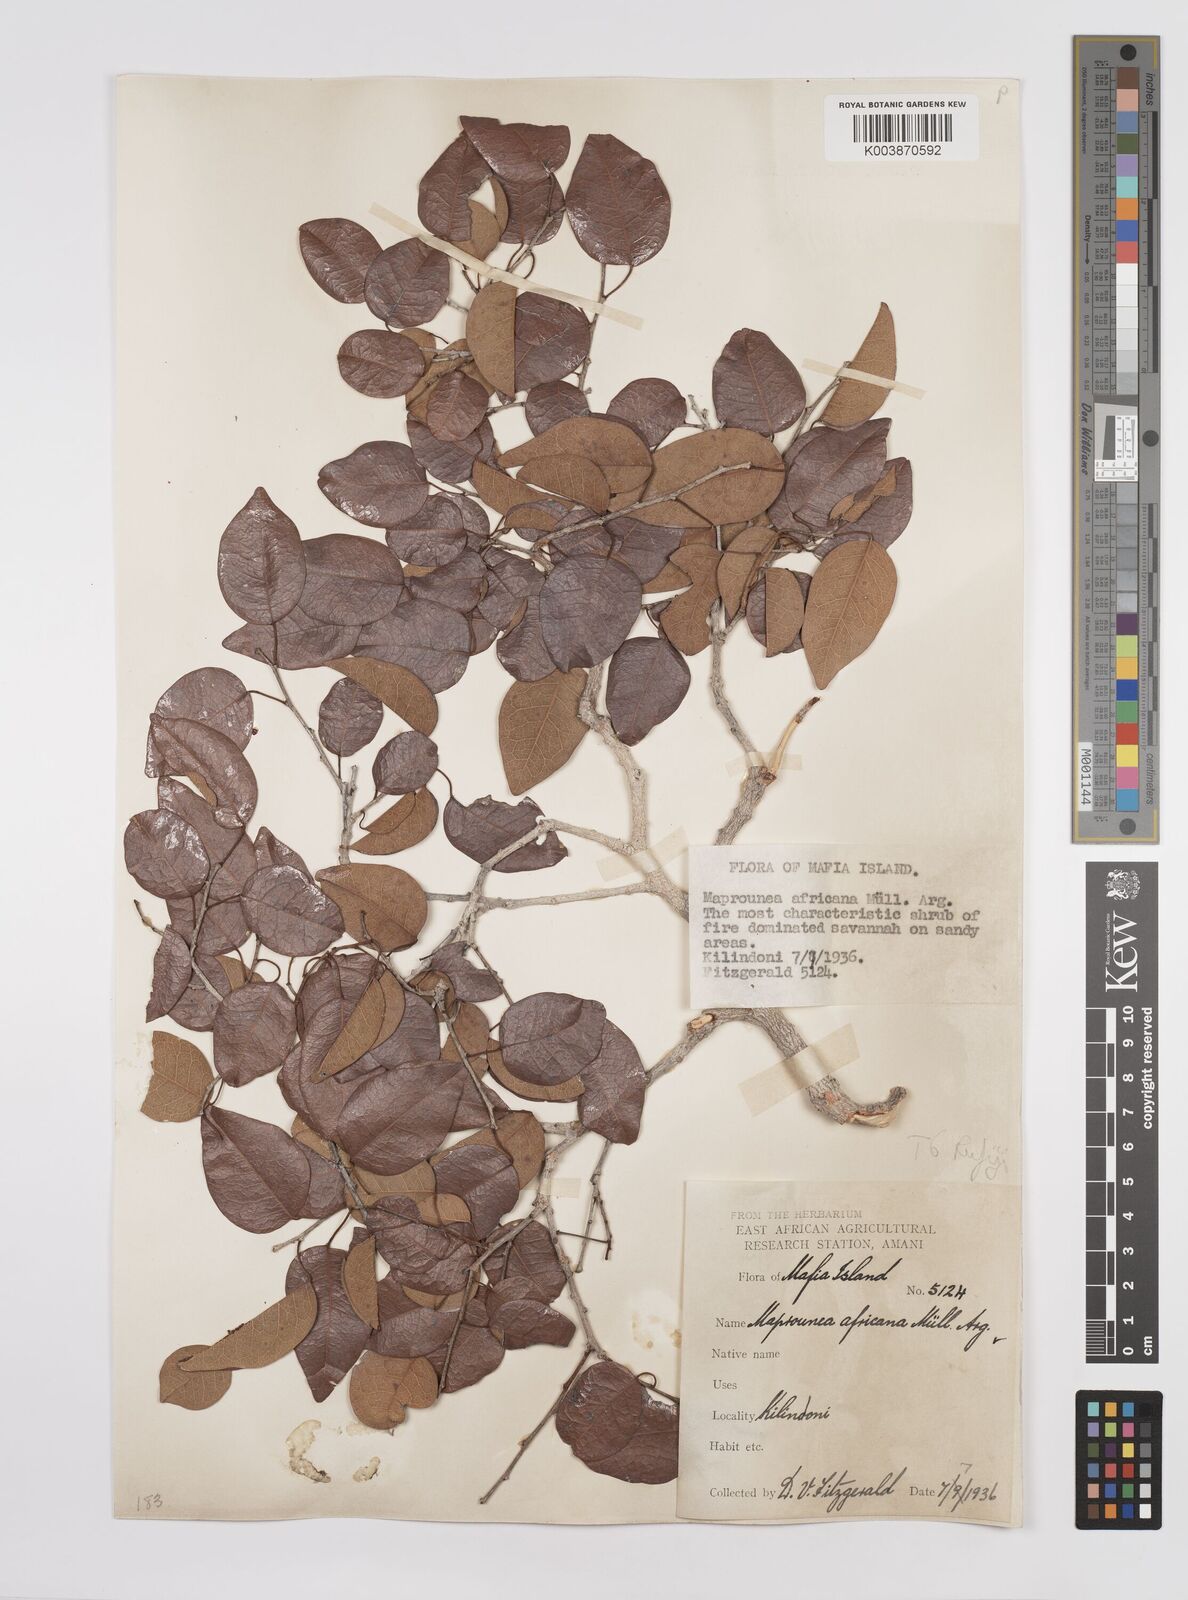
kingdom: Plantae
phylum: Tracheophyta
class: Magnoliopsida
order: Malpighiales
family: Euphorbiaceae
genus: Maprounea
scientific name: Maprounea africana
